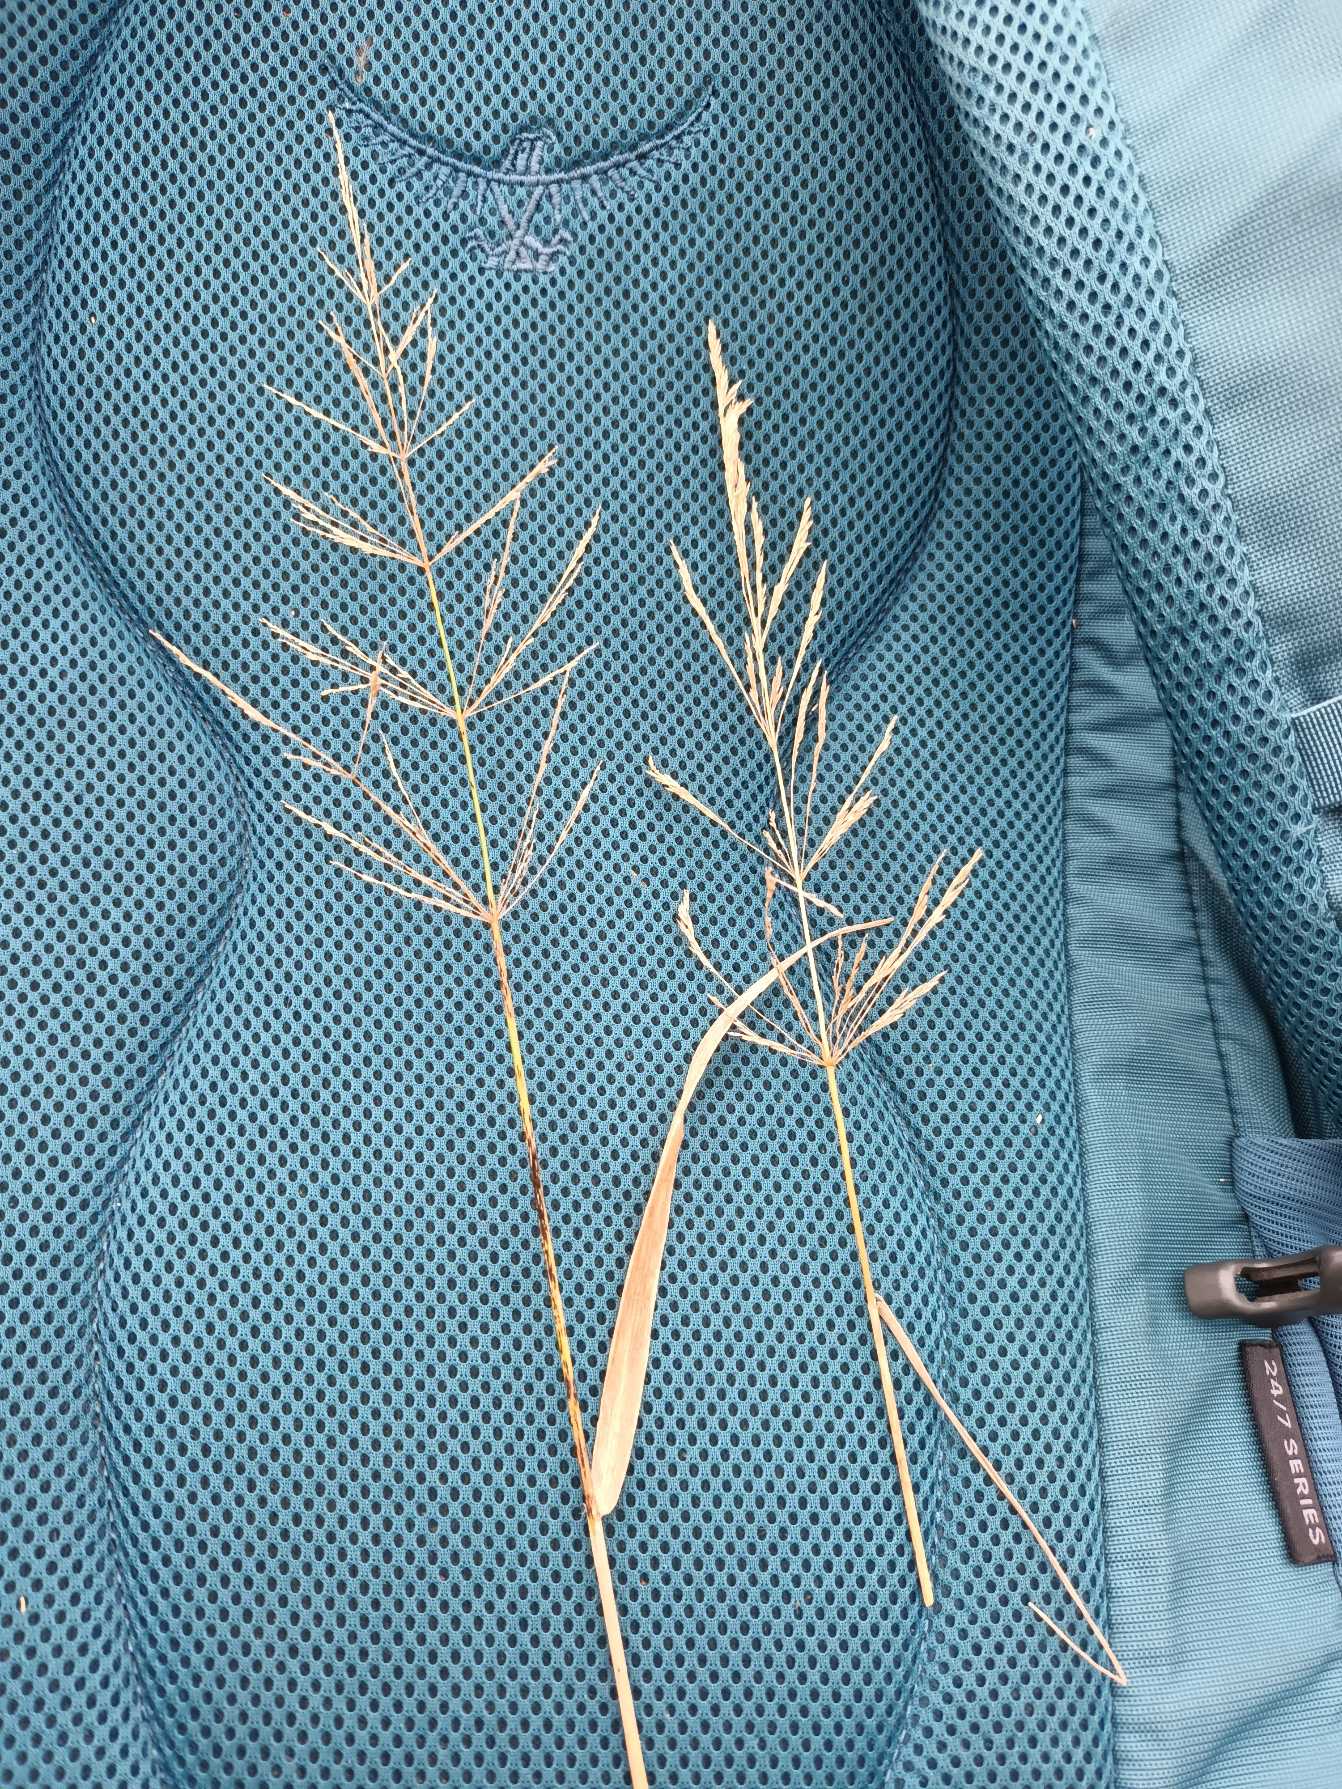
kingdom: Plantae
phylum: Tracheophyta
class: Liliopsida
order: Poales
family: Poaceae
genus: Agrostis
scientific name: Agrostis gigantea
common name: Stortoppet hvene
